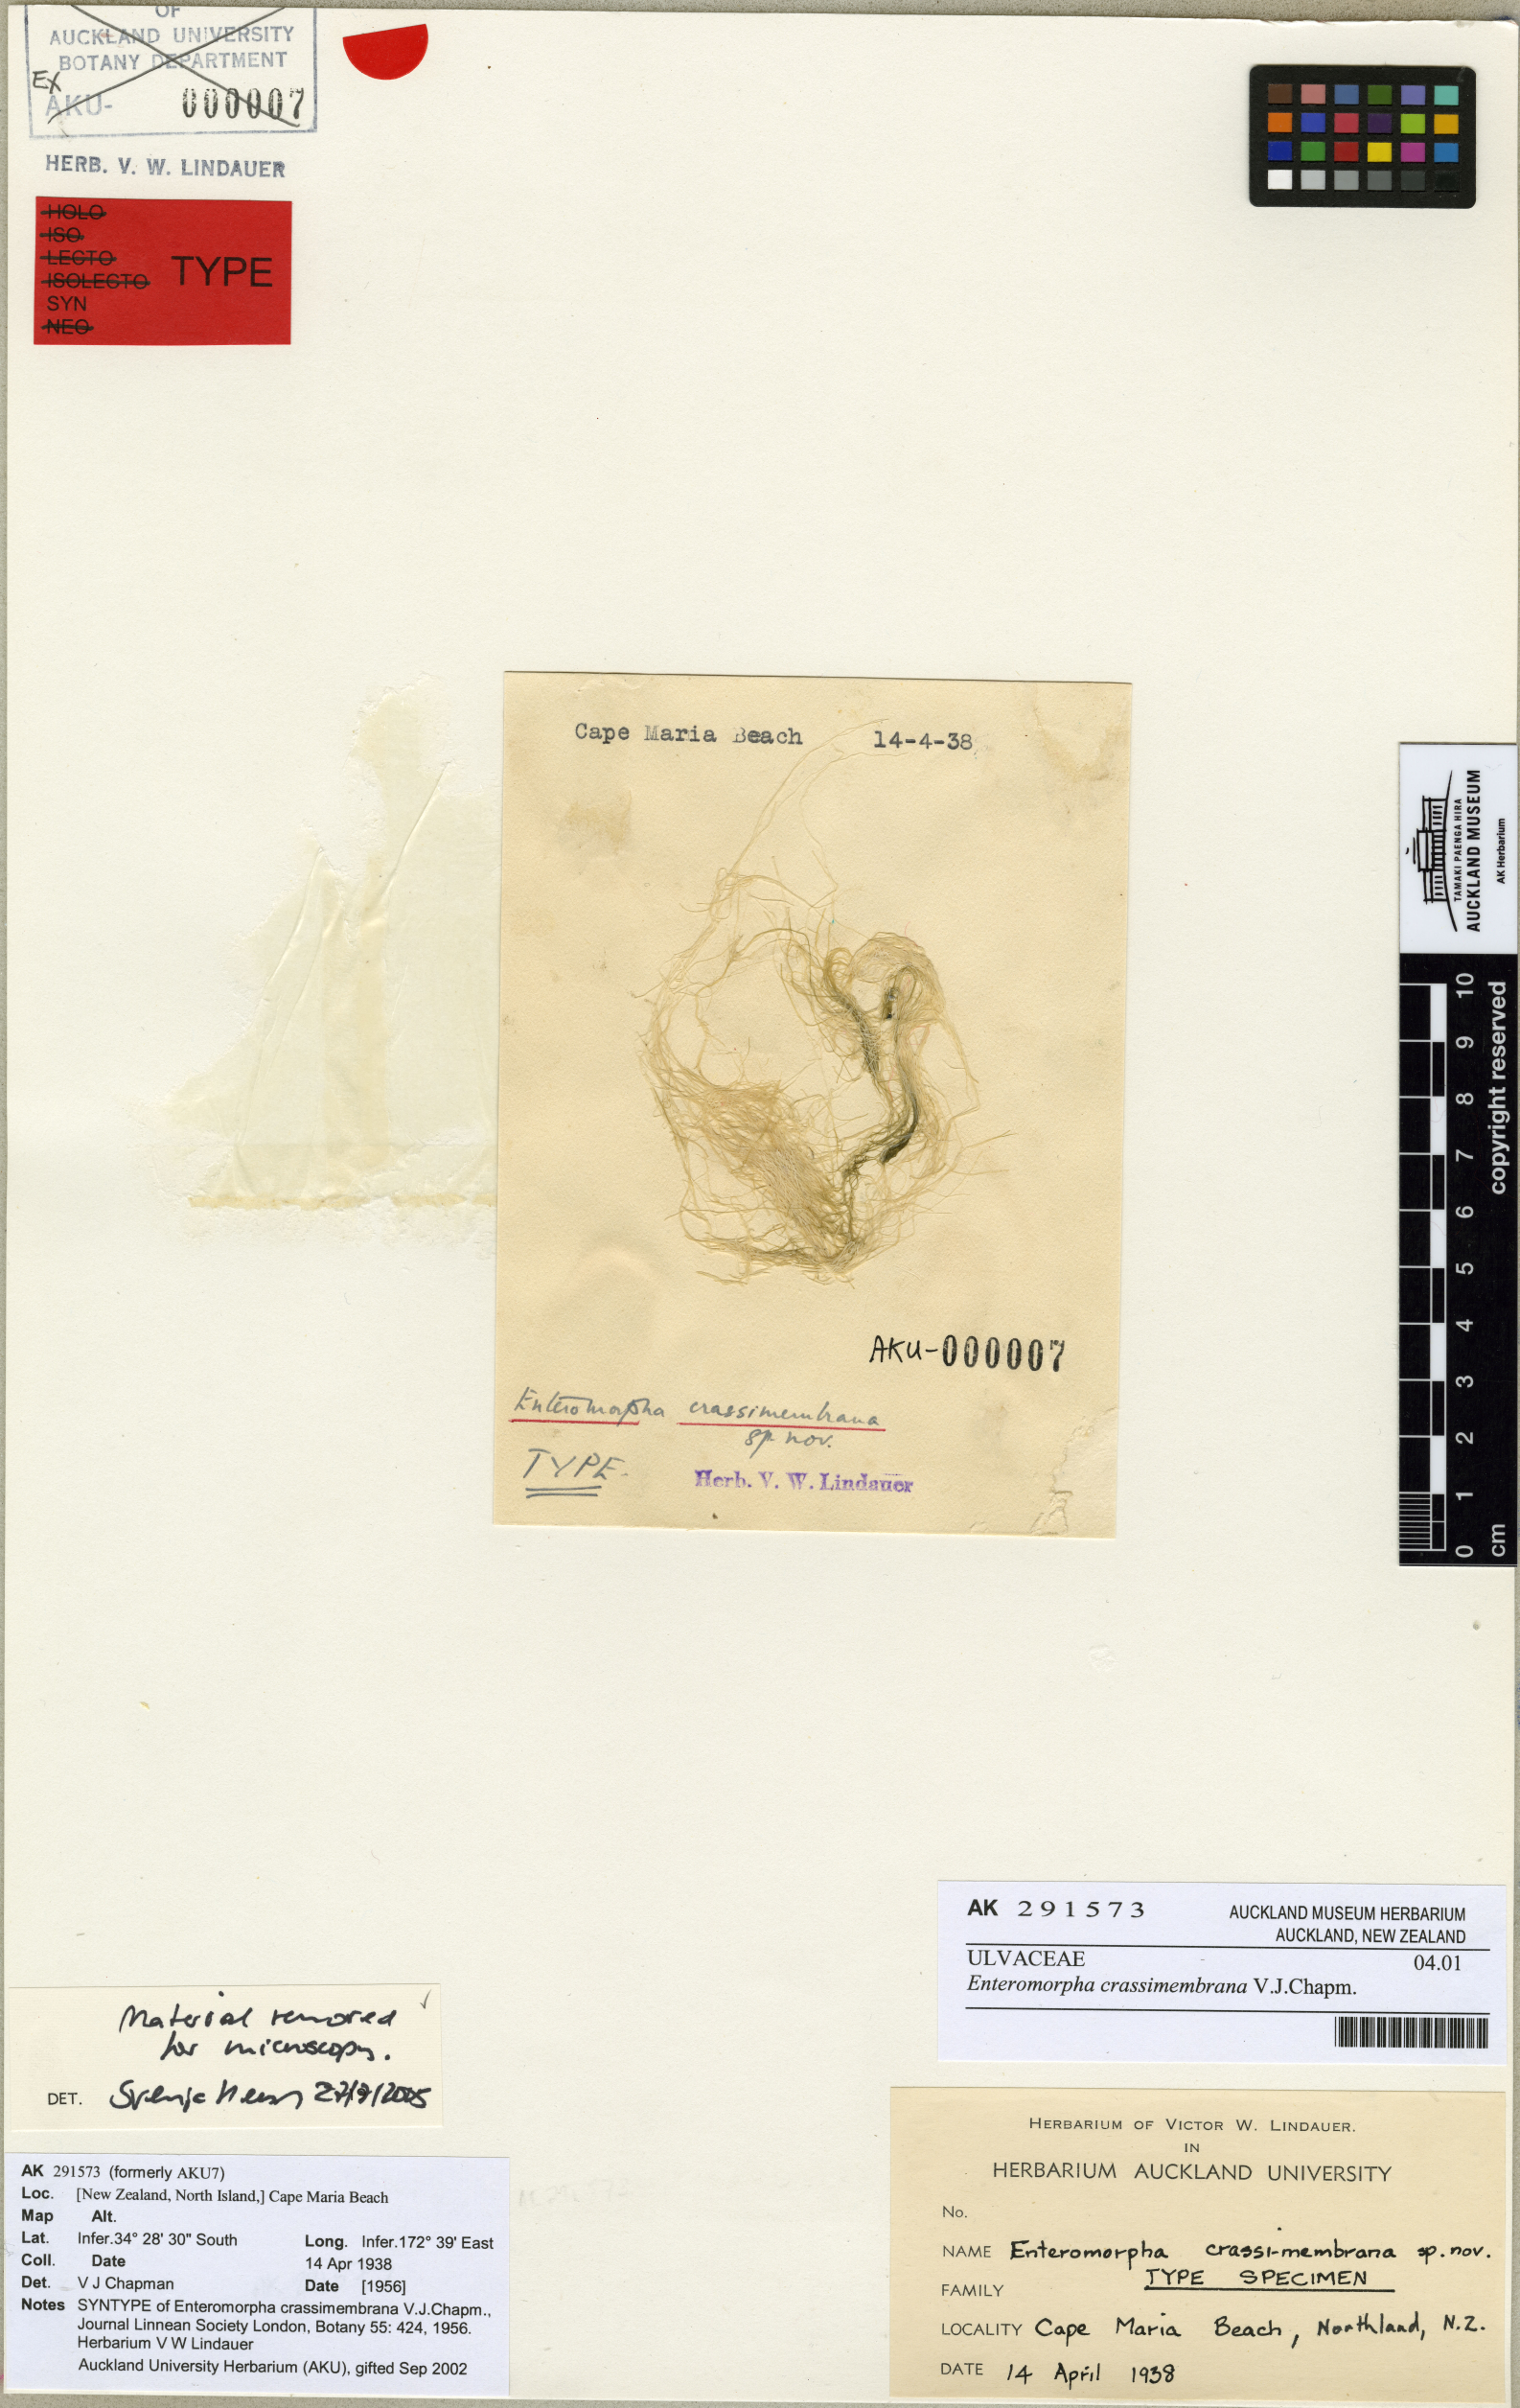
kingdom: Plantae
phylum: Chlorophyta
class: Ulvophyceae
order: Ulvales
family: Ulvaceae
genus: Ulva
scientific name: Ulva
